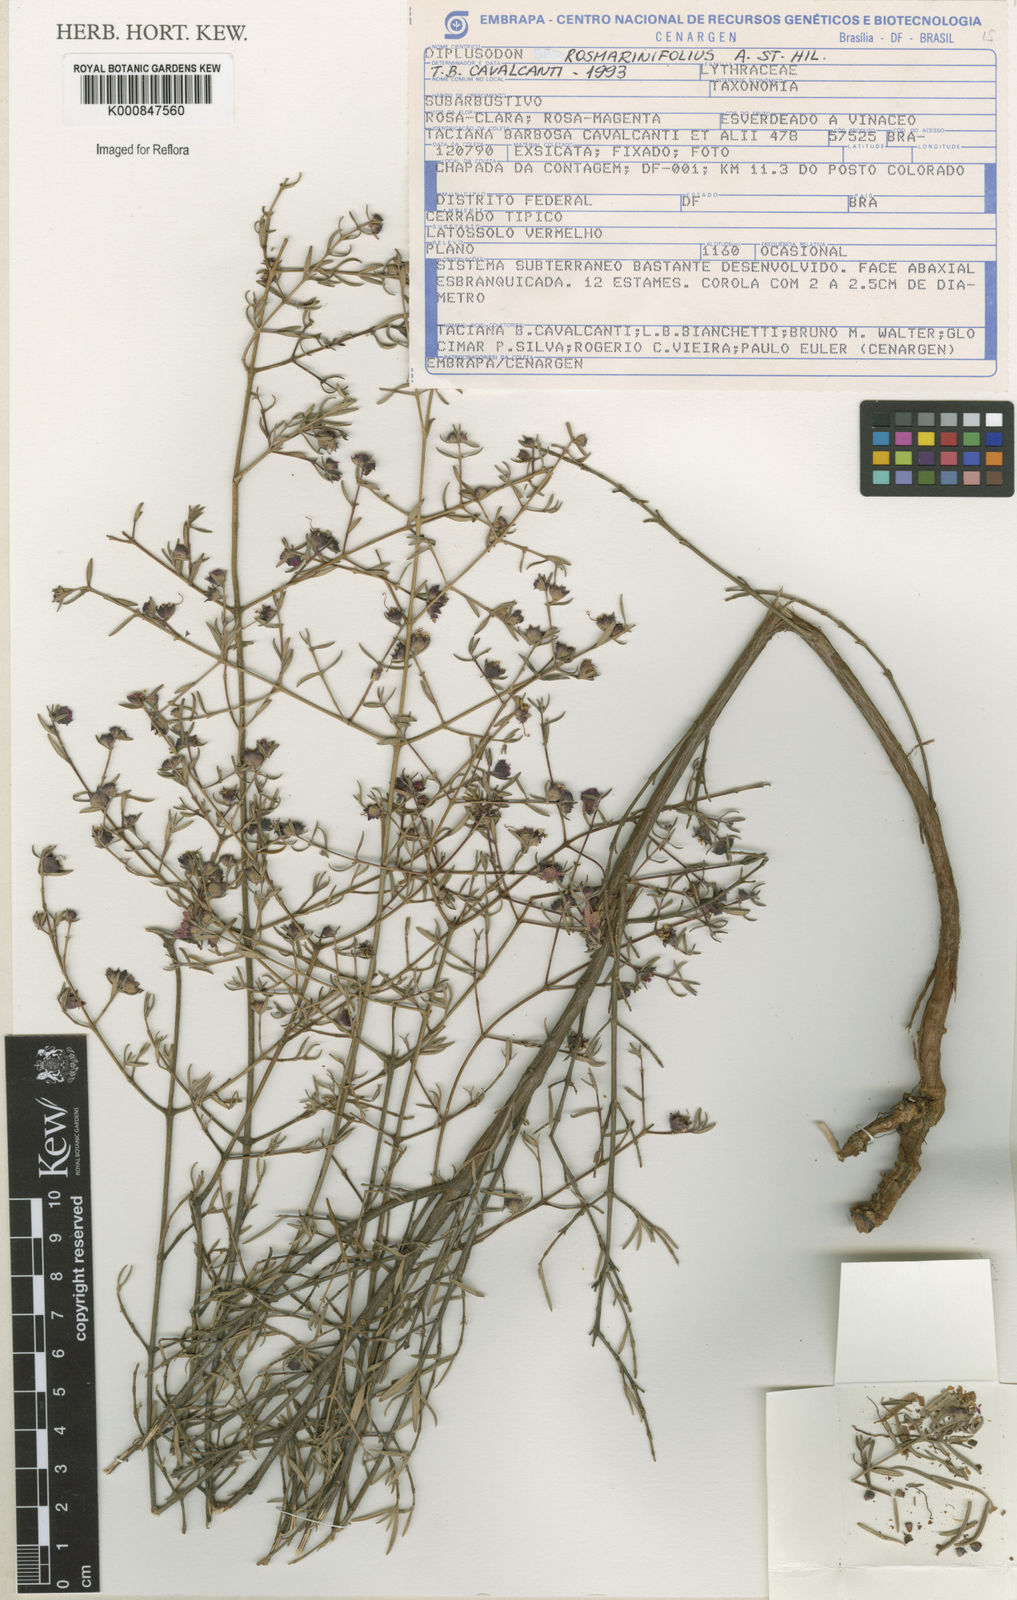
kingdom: Plantae
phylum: Tracheophyta
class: Magnoliopsida
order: Myrtales
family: Lythraceae
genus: Diplusodon
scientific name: Diplusodon rosmarinifolius
